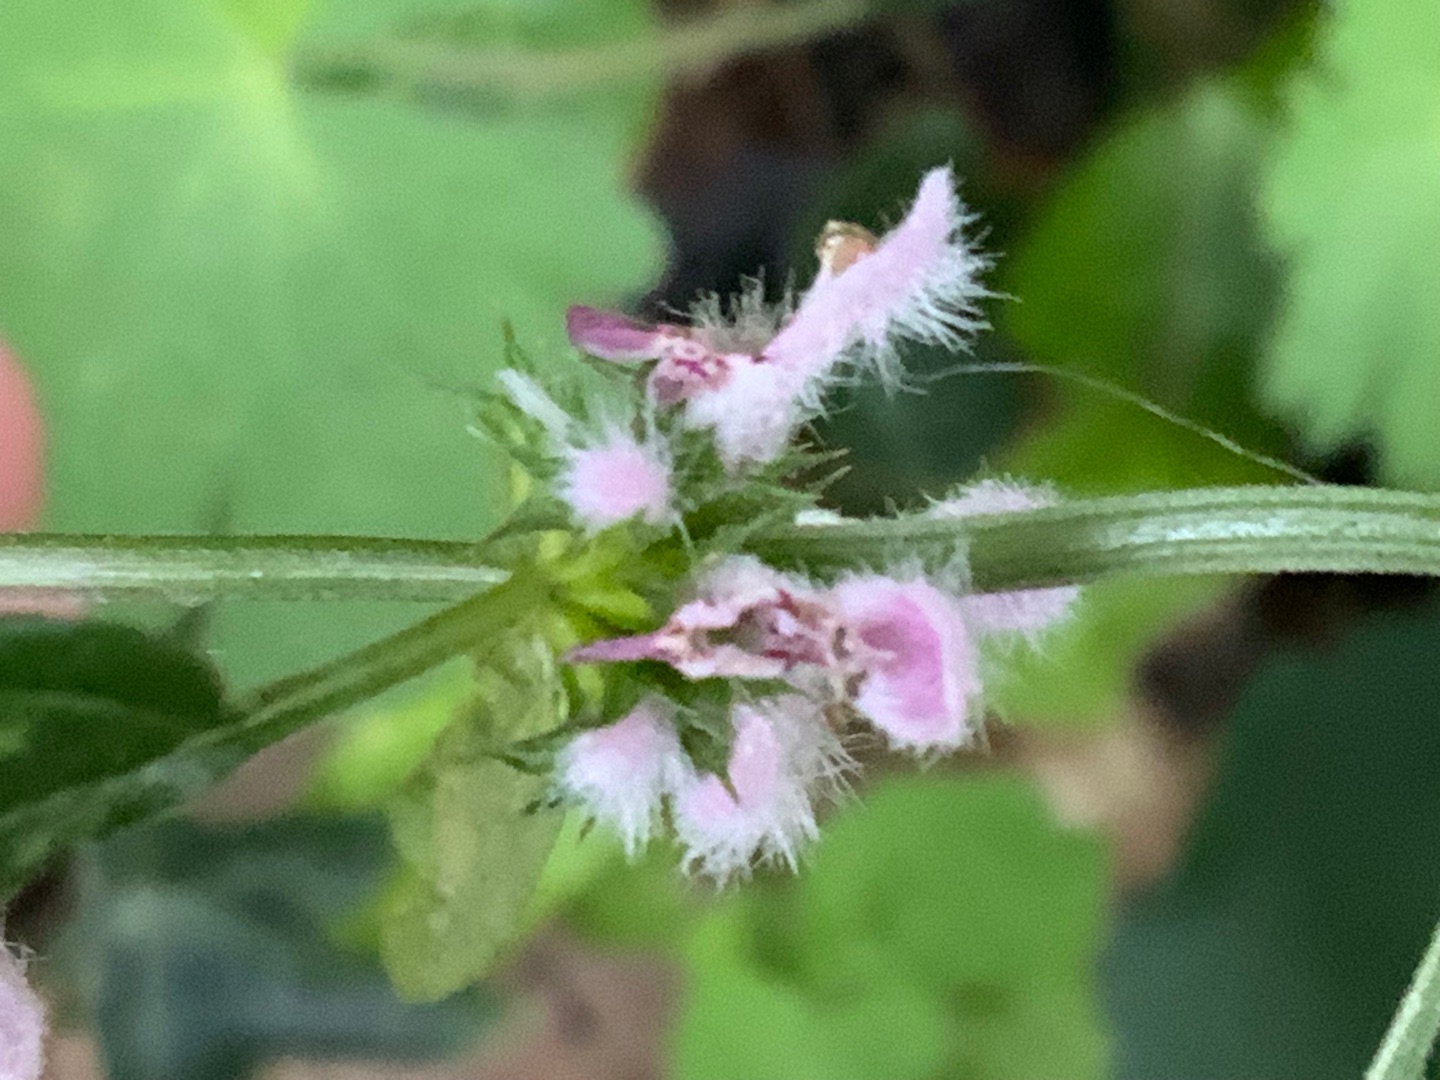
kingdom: Plantae
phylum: Tracheophyta
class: Magnoliopsida
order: Lamiales
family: Lamiaceae
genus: Leonurus
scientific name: Leonurus cardiaca
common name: Hjertespand
